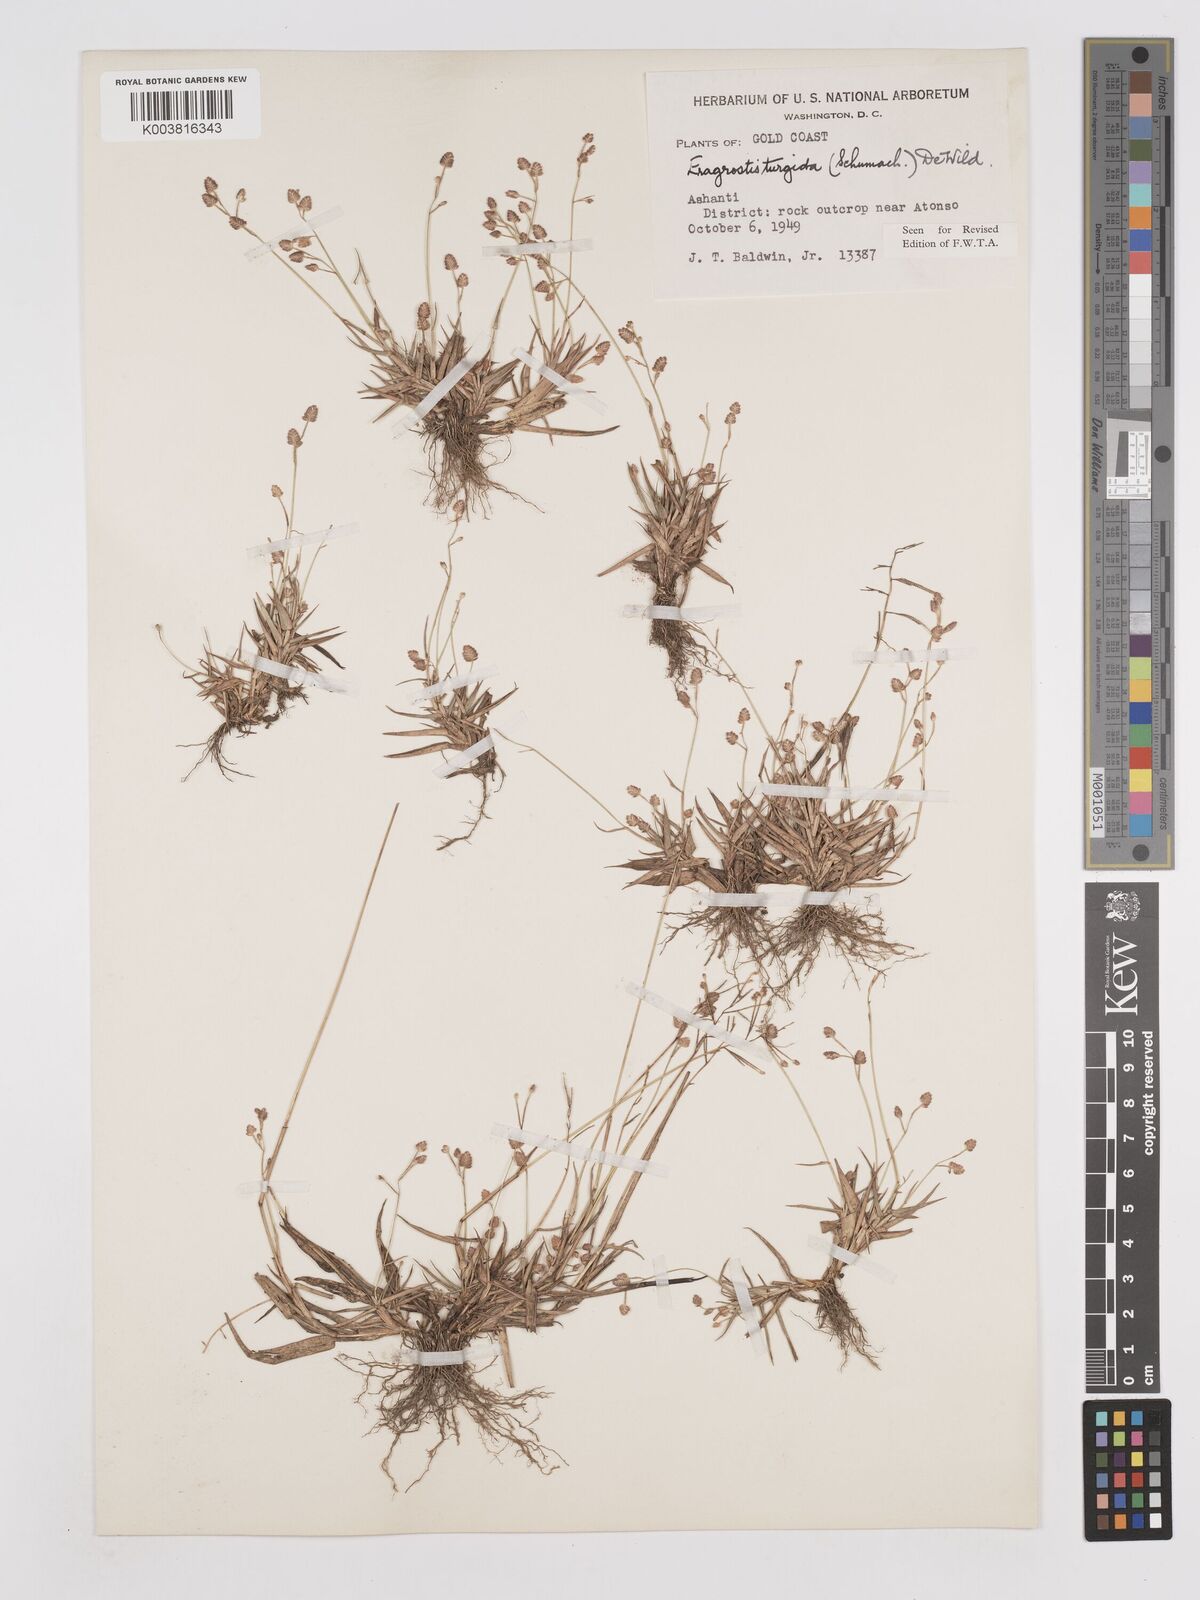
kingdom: Plantae
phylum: Tracheophyta
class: Liliopsida
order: Poales
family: Poaceae
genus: Eragrostis
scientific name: Eragrostis turgida
